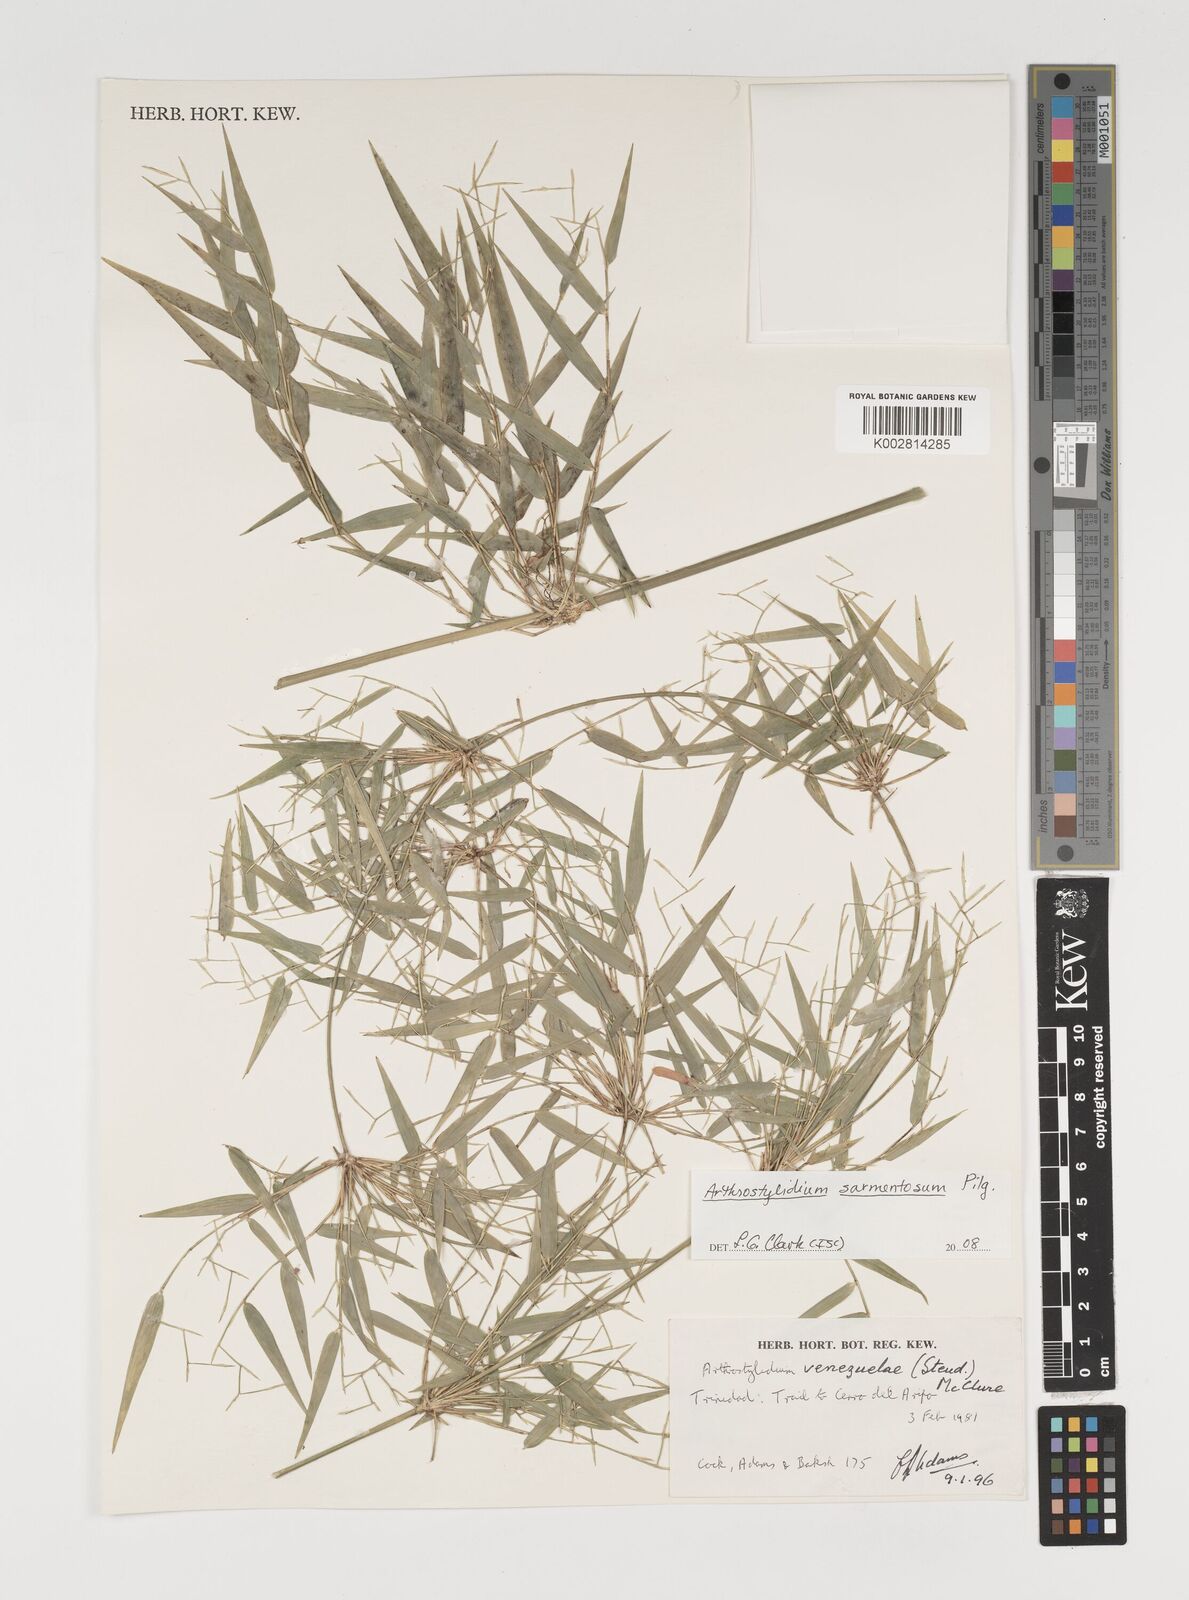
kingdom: Plantae
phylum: Tracheophyta
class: Liliopsida
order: Poales
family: Poaceae
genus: Arthrostylidium
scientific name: Arthrostylidium sarmentosum
